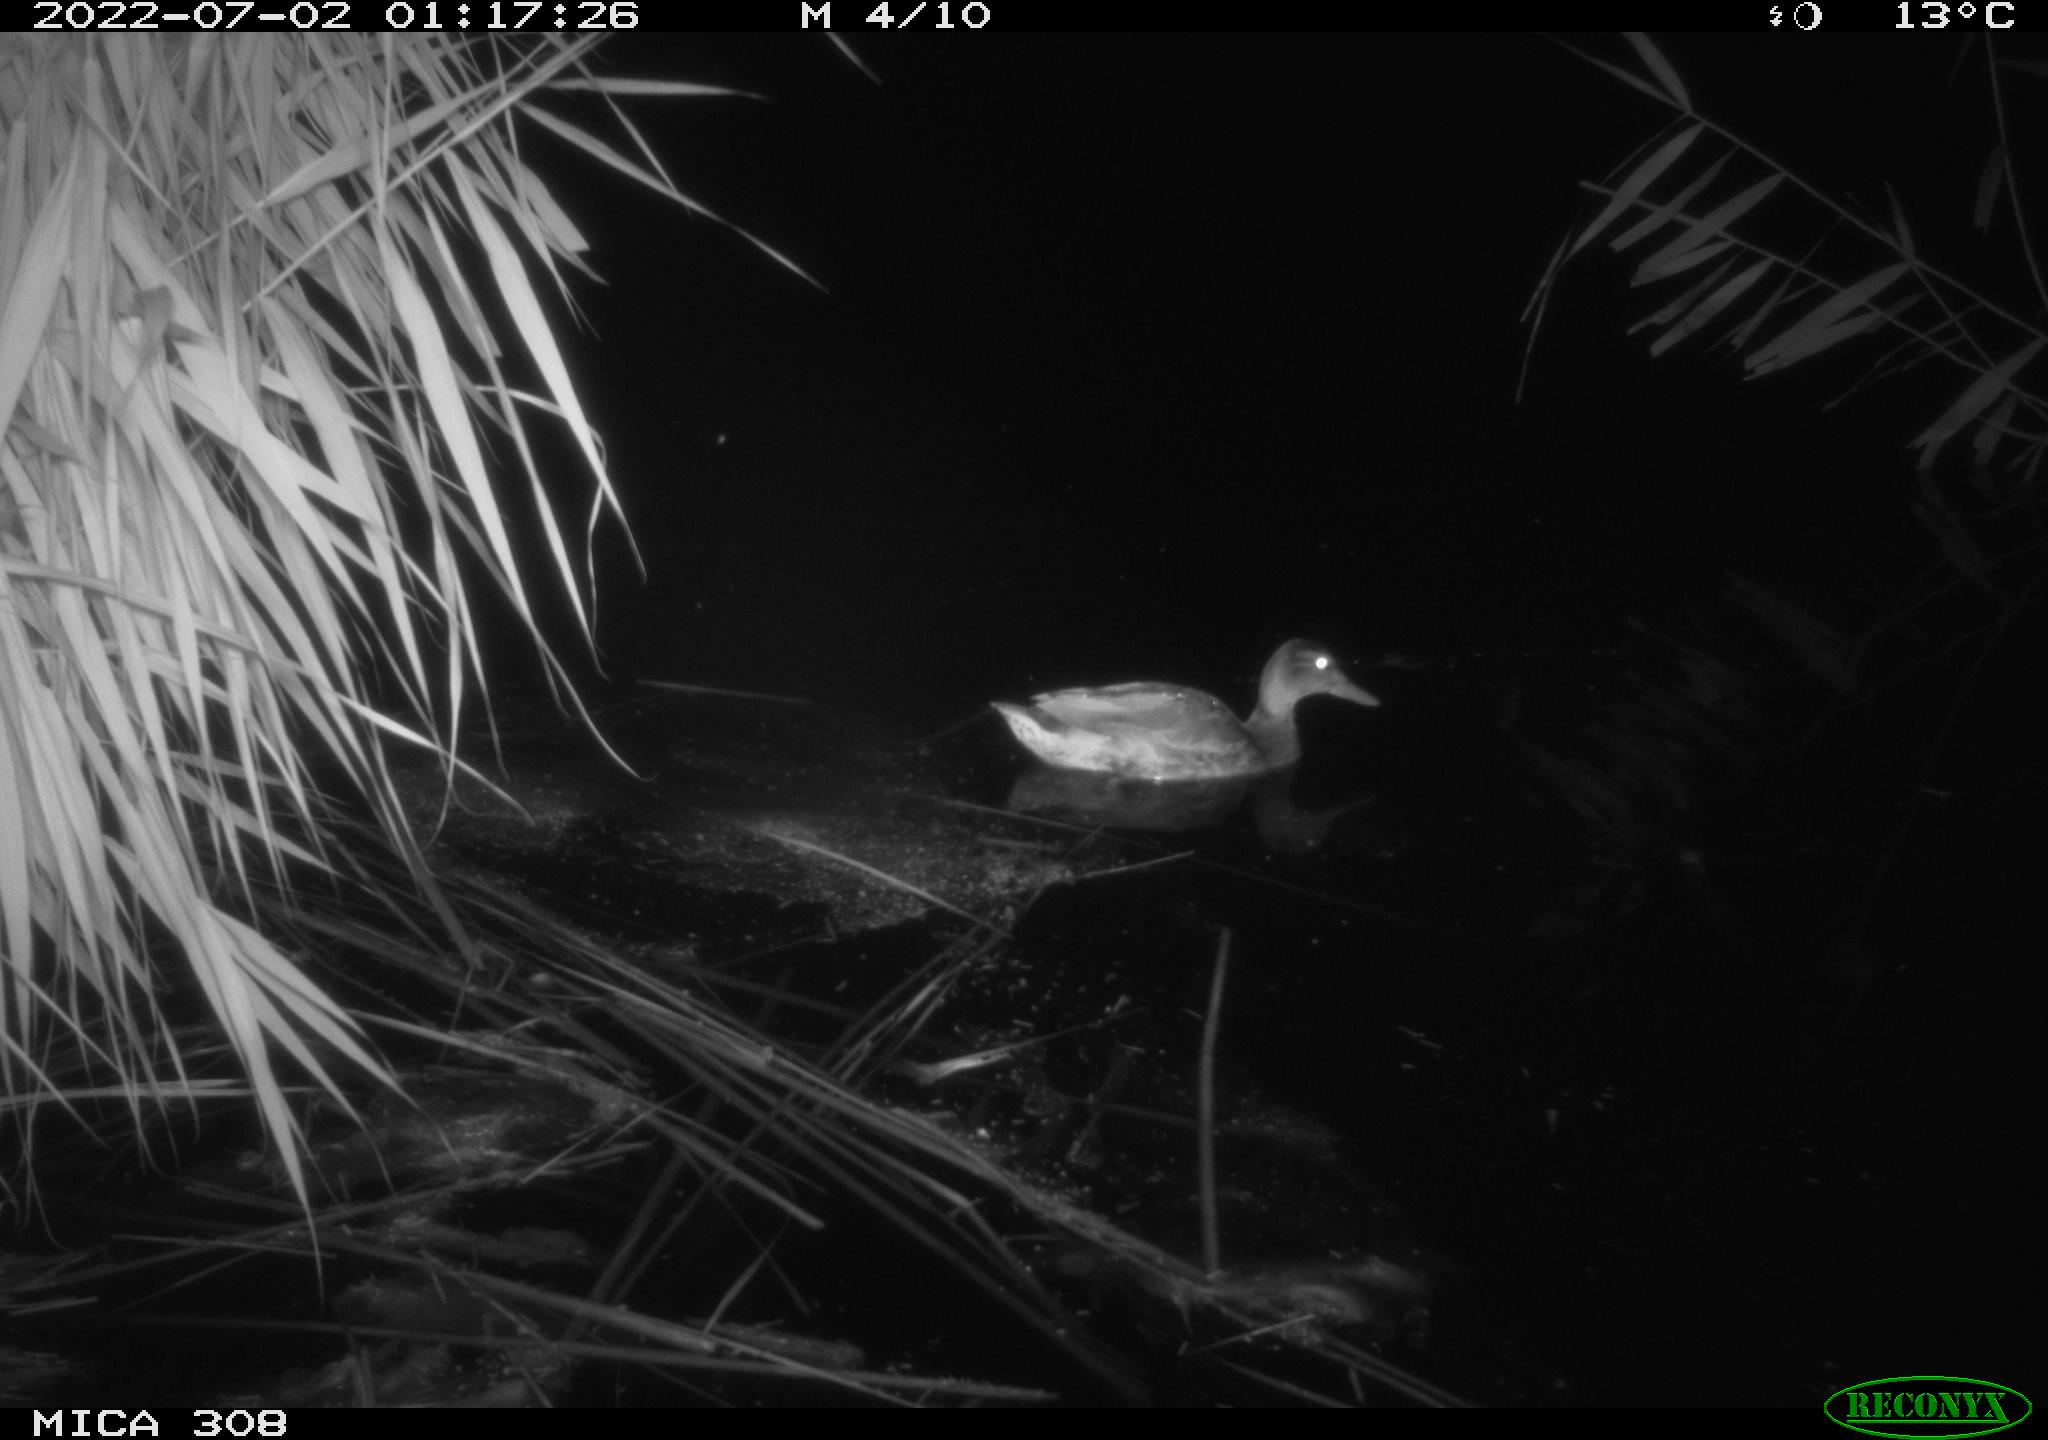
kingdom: Animalia
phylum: Chordata
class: Aves
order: Anseriformes
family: Anatidae
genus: Anas
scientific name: Anas platyrhynchos
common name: Mallard
